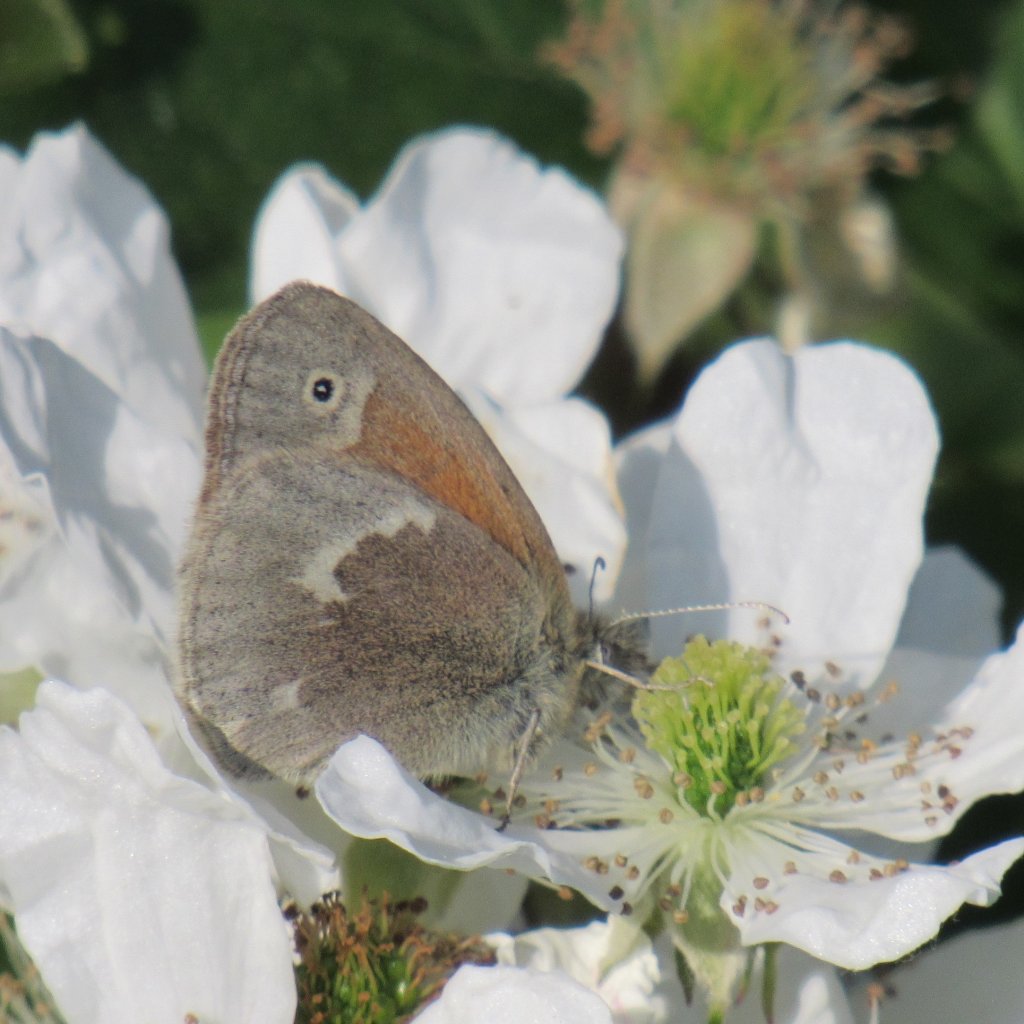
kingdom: Animalia
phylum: Arthropoda
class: Insecta
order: Lepidoptera
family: Nymphalidae
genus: Coenonympha
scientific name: Coenonympha tullia
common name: Large Heath
